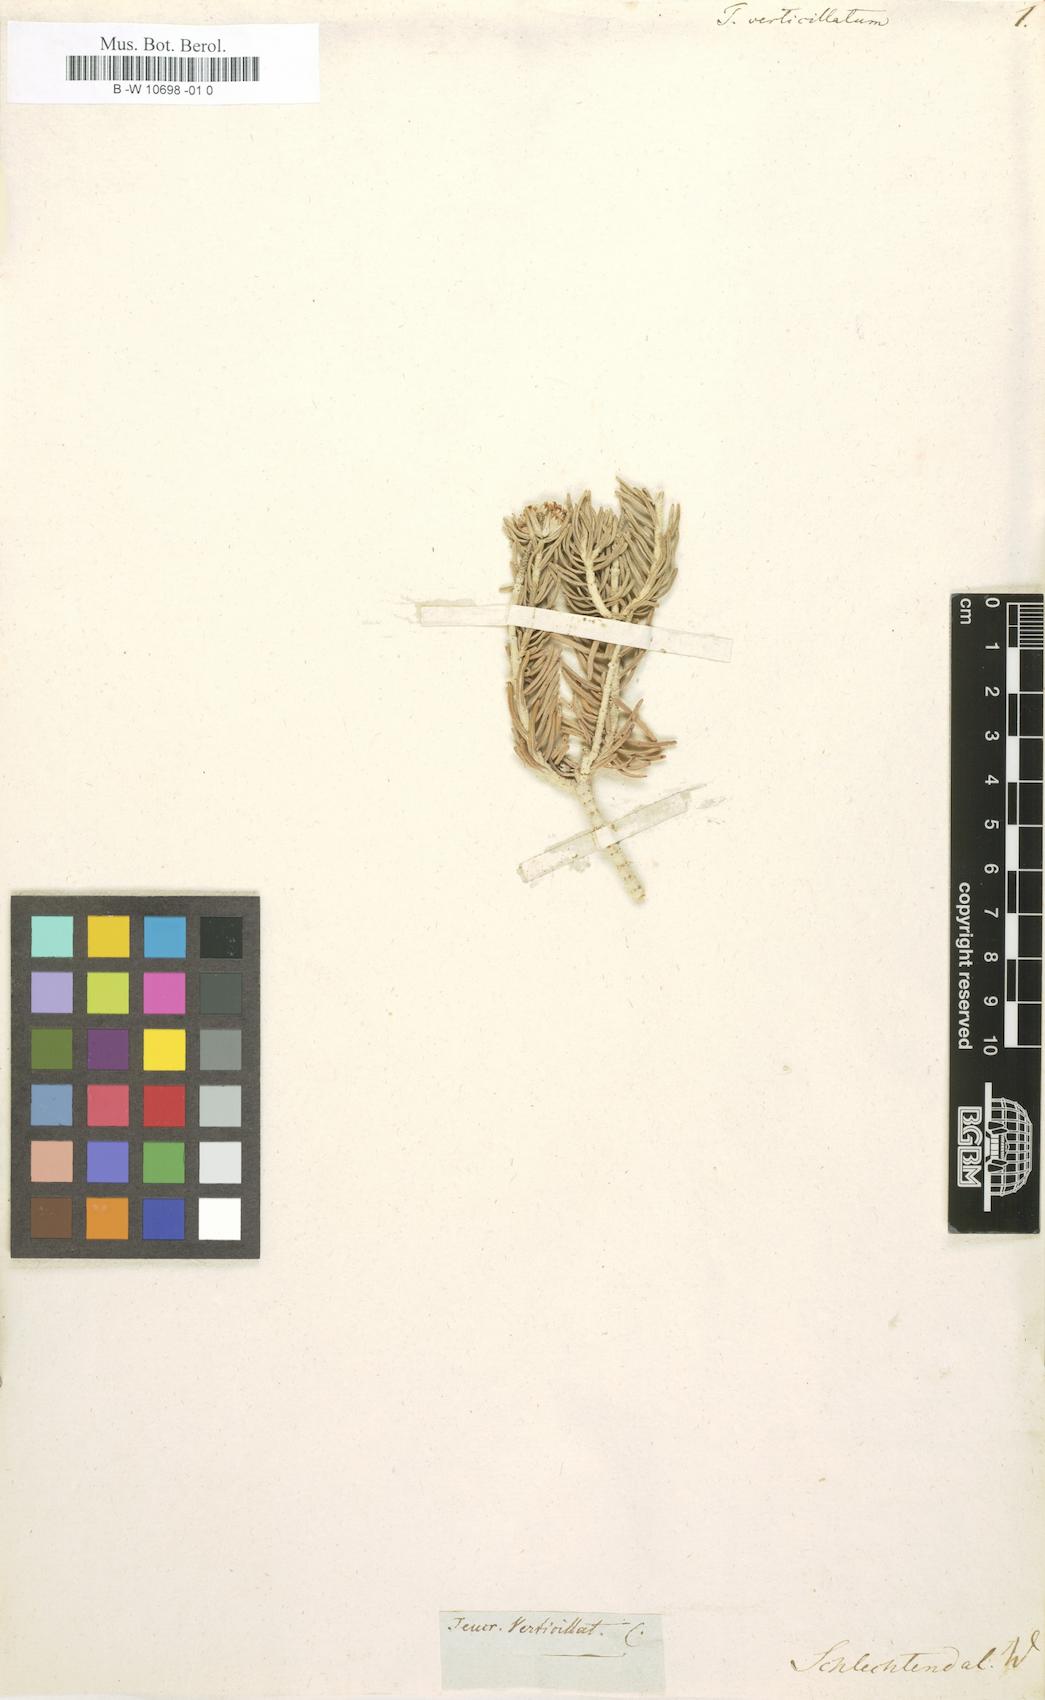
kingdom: Plantae
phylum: Tracheophyta
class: Magnoliopsida
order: Lamiales
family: Lamiaceae
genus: Teucrium
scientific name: Teucrium libanitis
